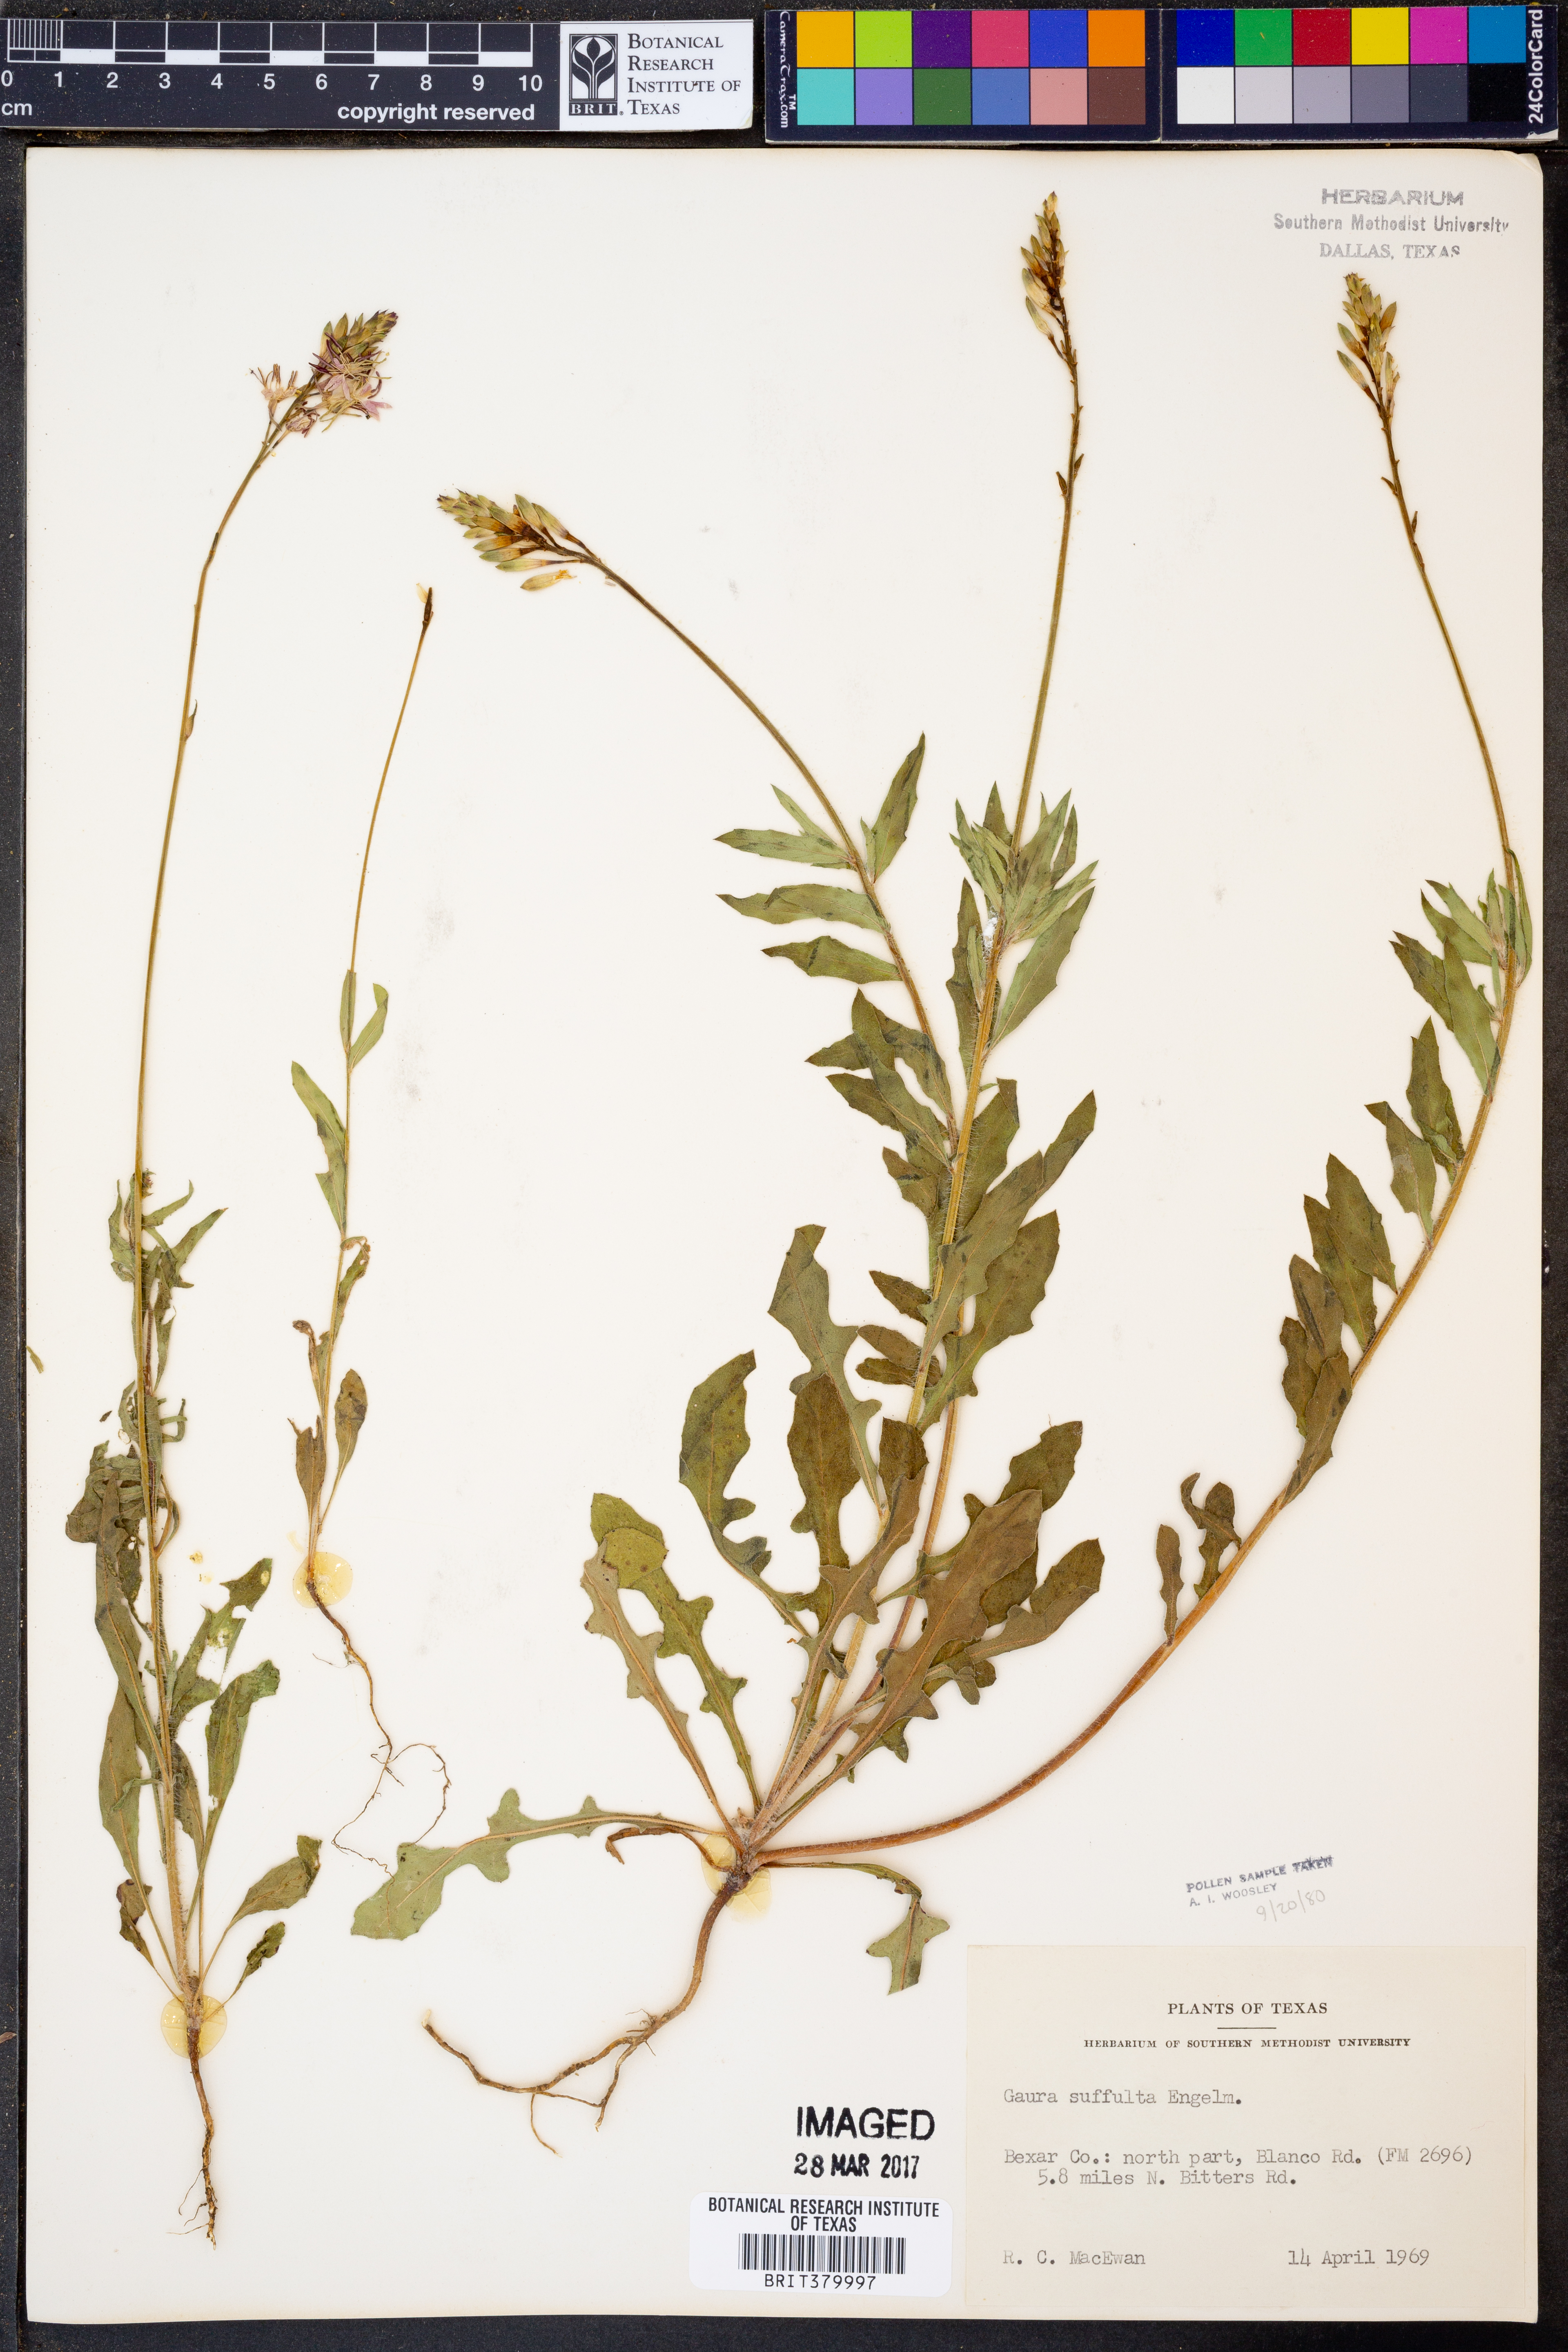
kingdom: Plantae
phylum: Tracheophyta
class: Magnoliopsida
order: Myrtales
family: Onagraceae
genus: Oenothera
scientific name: Oenothera Gaura suffulta
